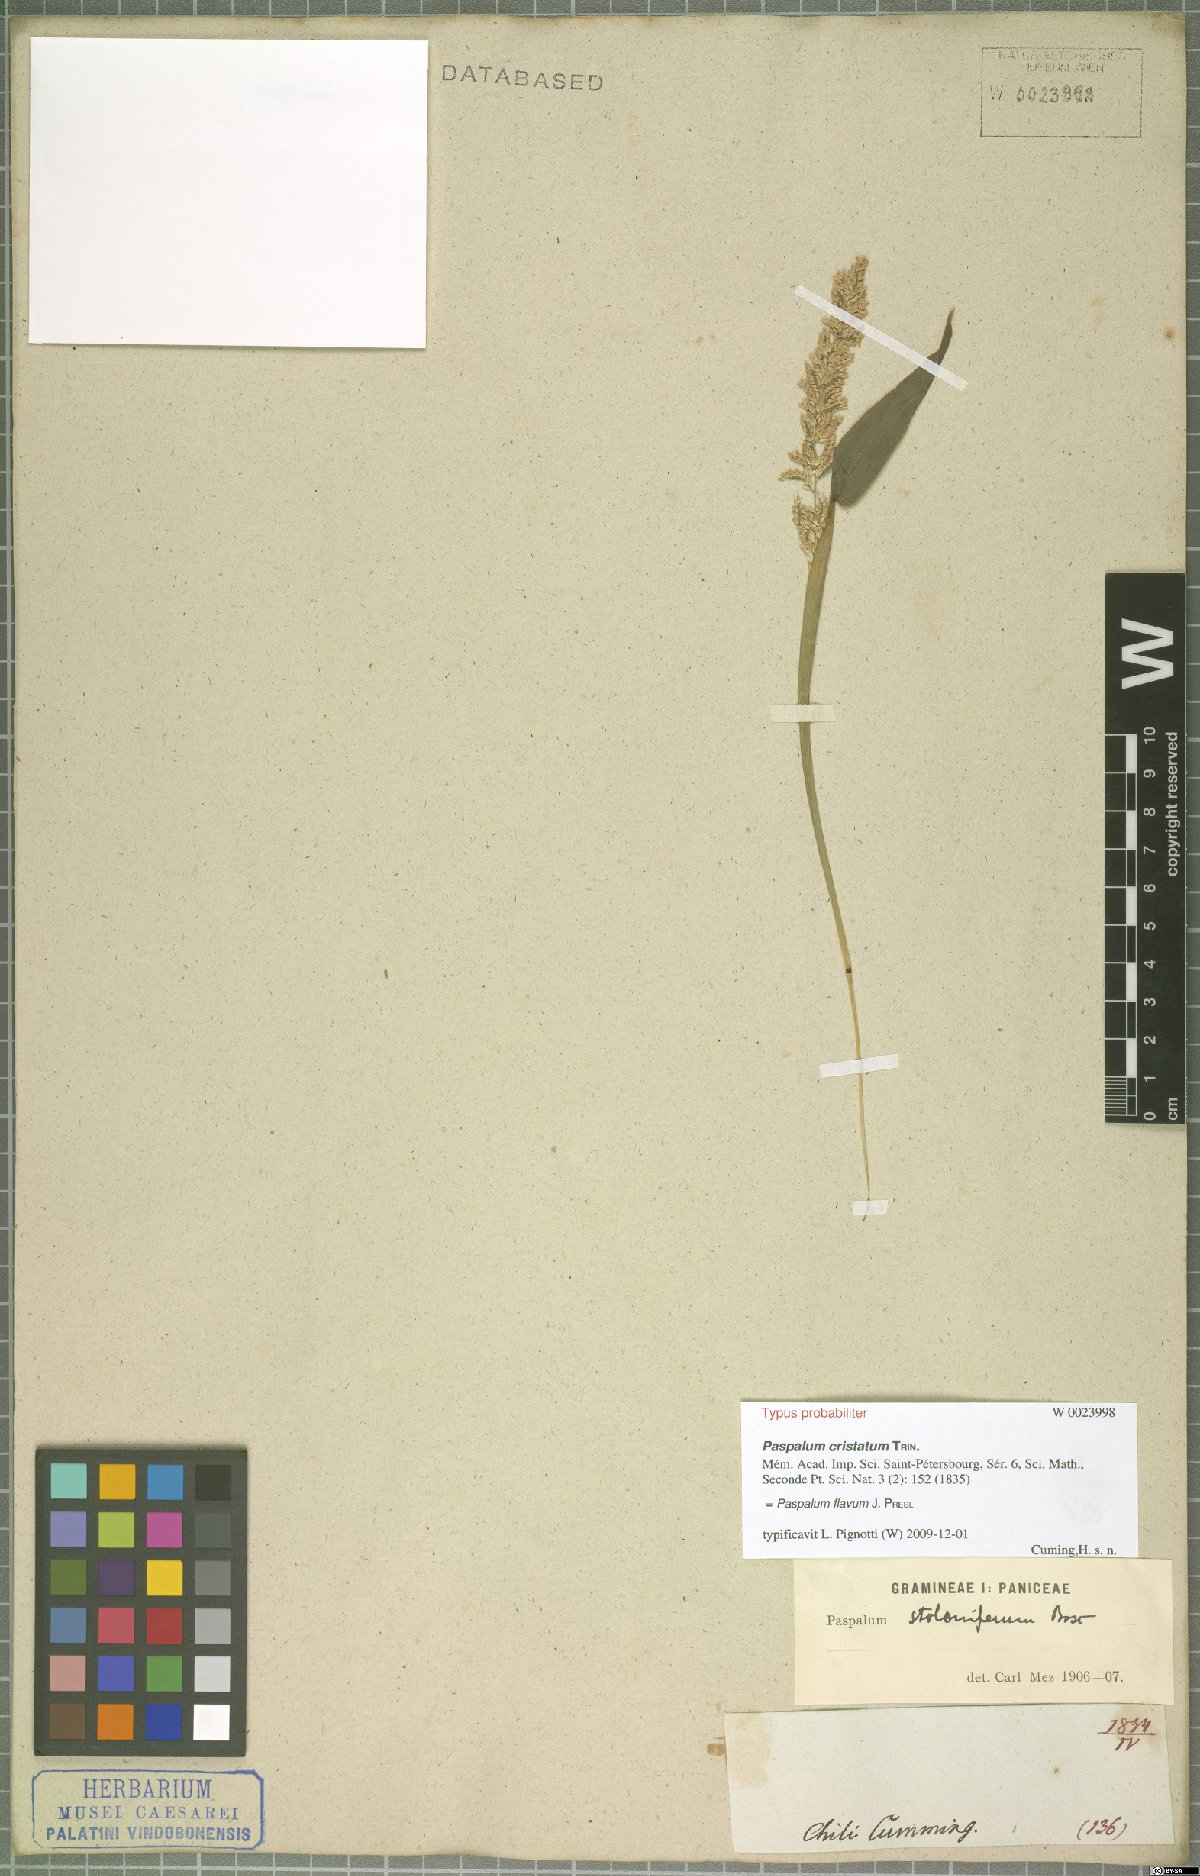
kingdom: Plantae
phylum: Tracheophyta
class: Liliopsida
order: Poales
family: Poaceae
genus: Paspalum
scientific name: Paspalum flavum
